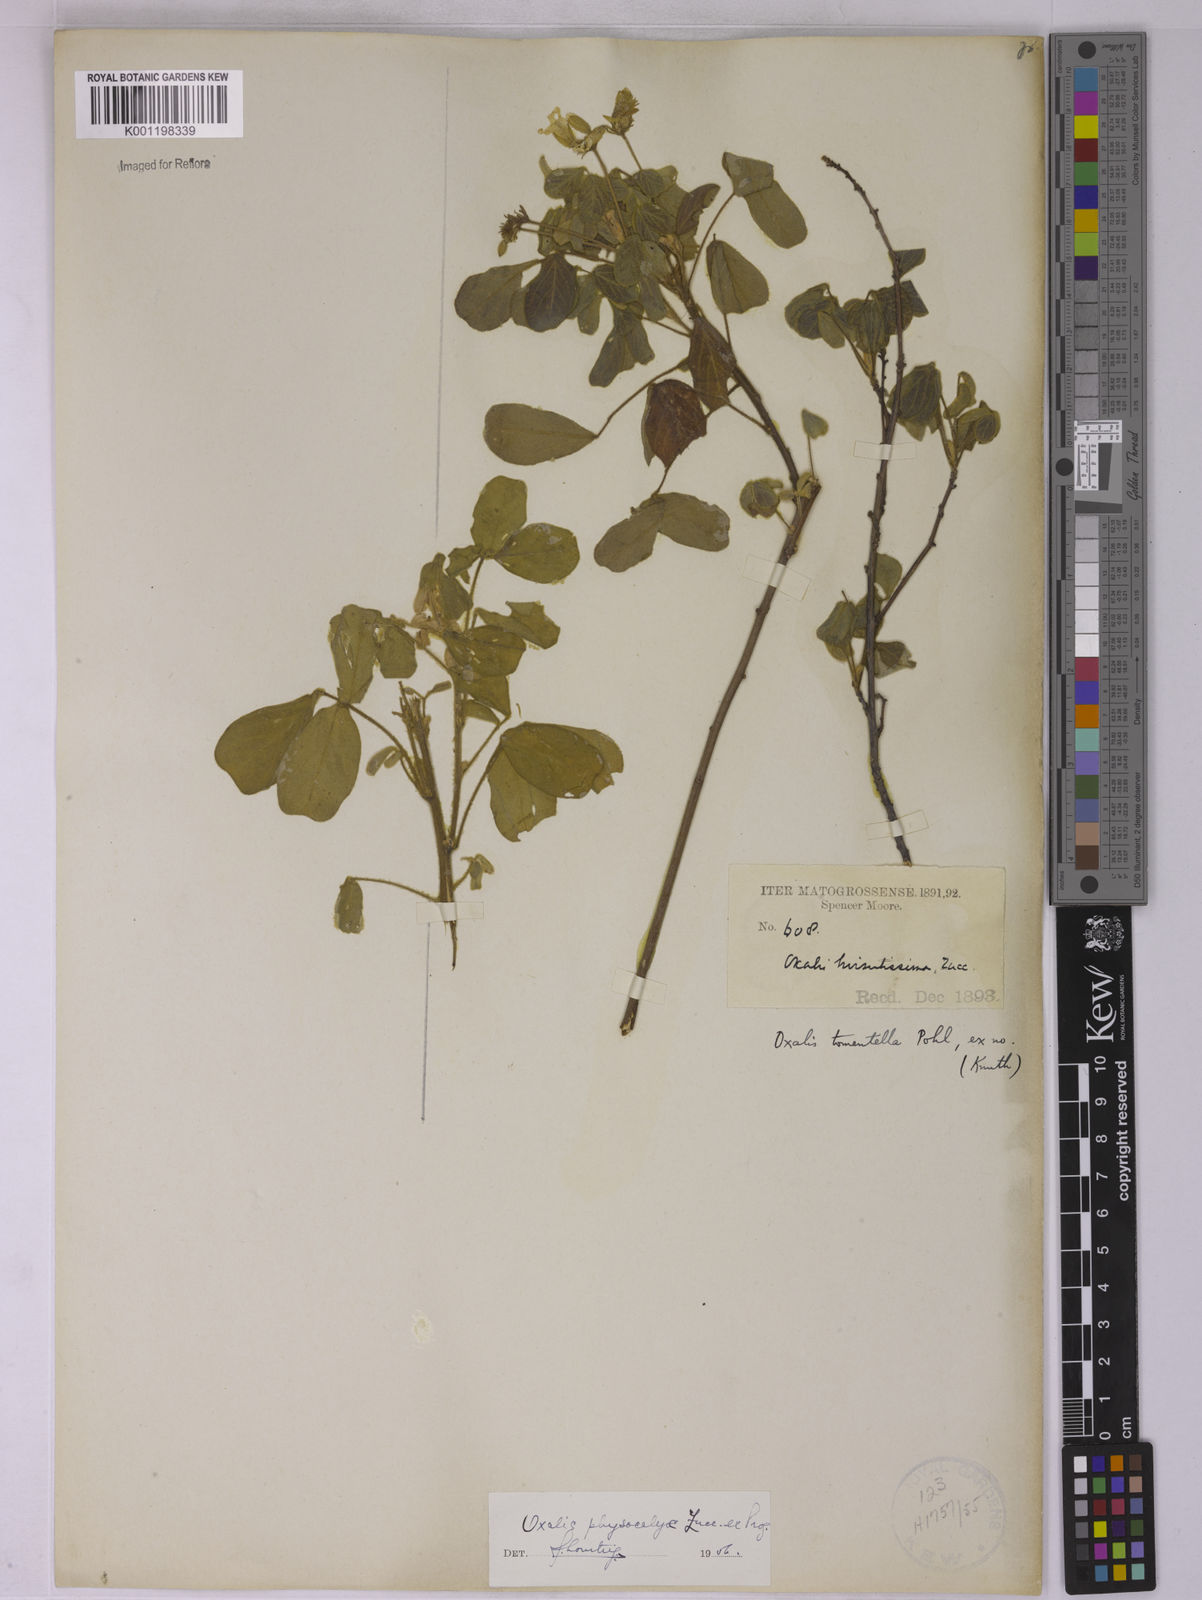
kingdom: Plantae
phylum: Tracheophyta
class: Magnoliopsida
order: Oxalidales
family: Oxalidaceae
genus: Oxalis
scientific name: Oxalis physocalyx
